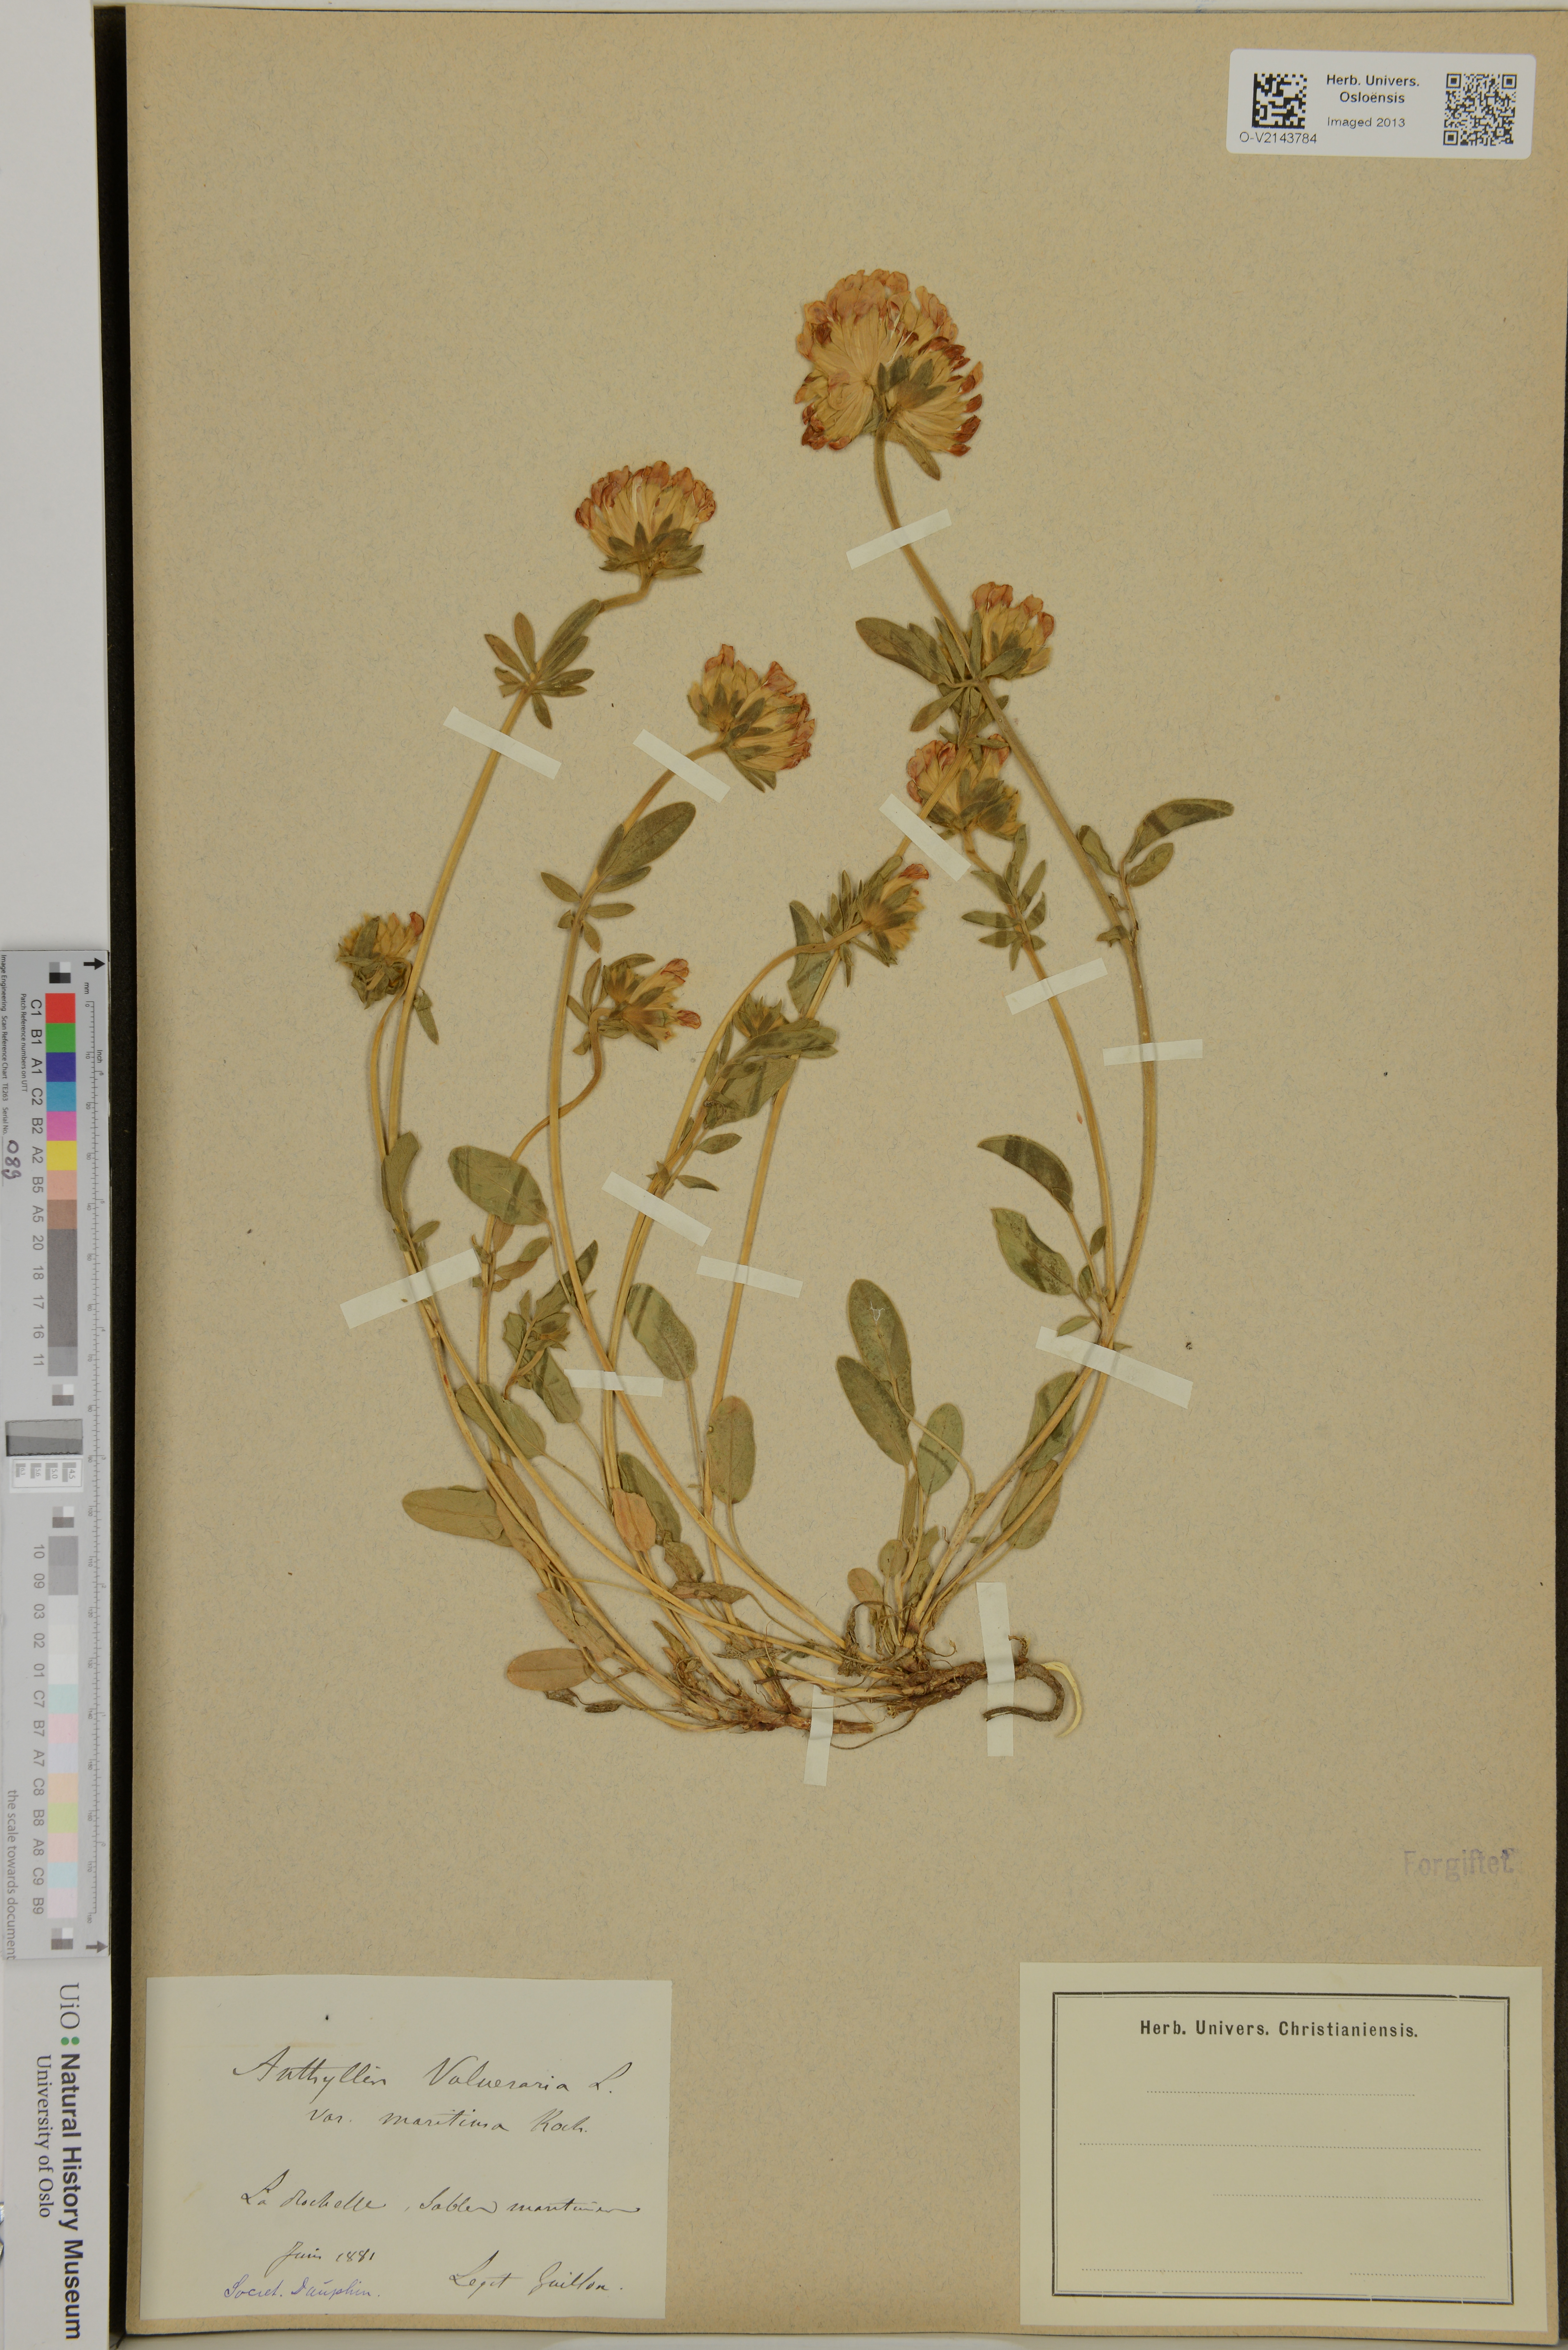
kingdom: Plantae
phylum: Tracheophyta
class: Magnoliopsida
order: Fabales
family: Fabaceae
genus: Anthyllis
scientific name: Anthyllis vulneraria
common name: Kidney vetch
